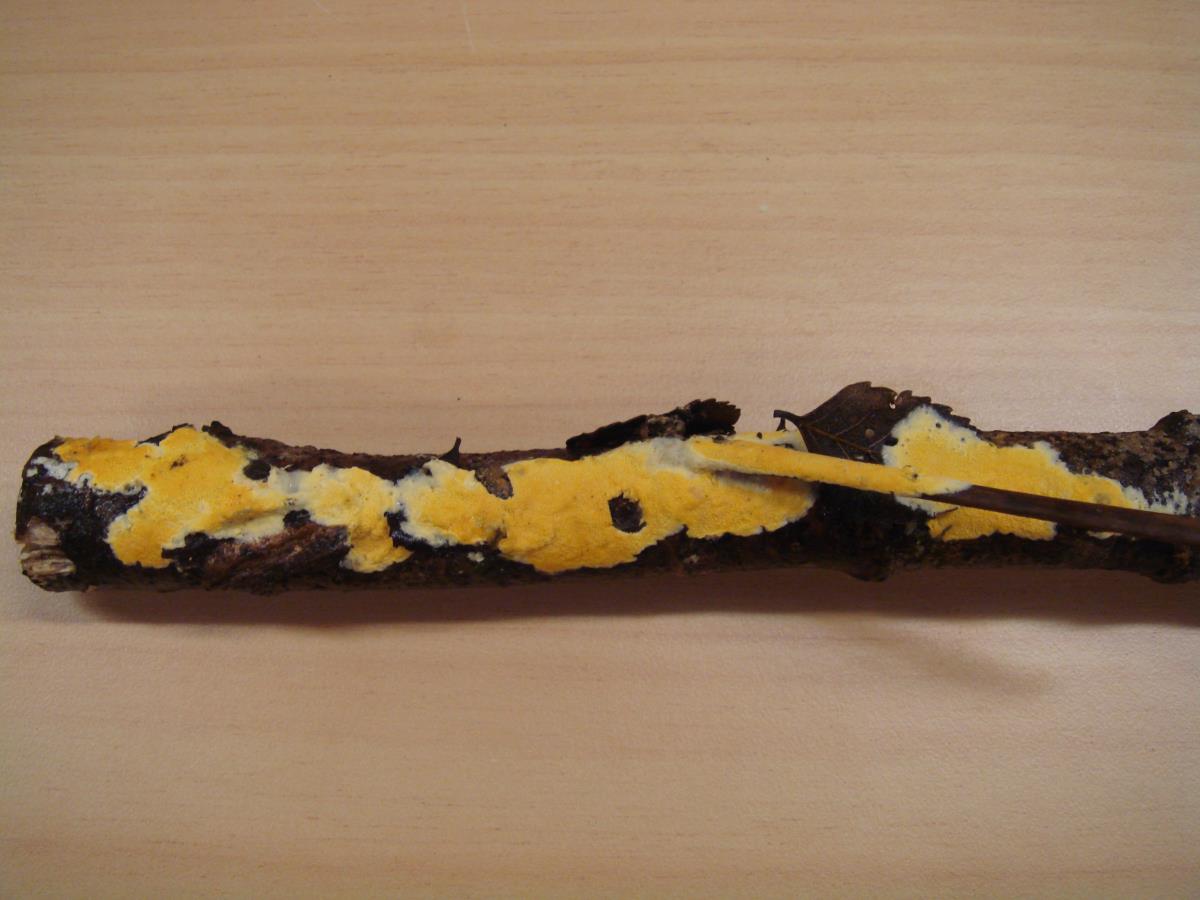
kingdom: Fungi
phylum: Basidiomycota
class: Agaricomycetes
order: Polyporales
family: Irpicaceae
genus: Meruliopsis
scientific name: Meruliopsis miniata
